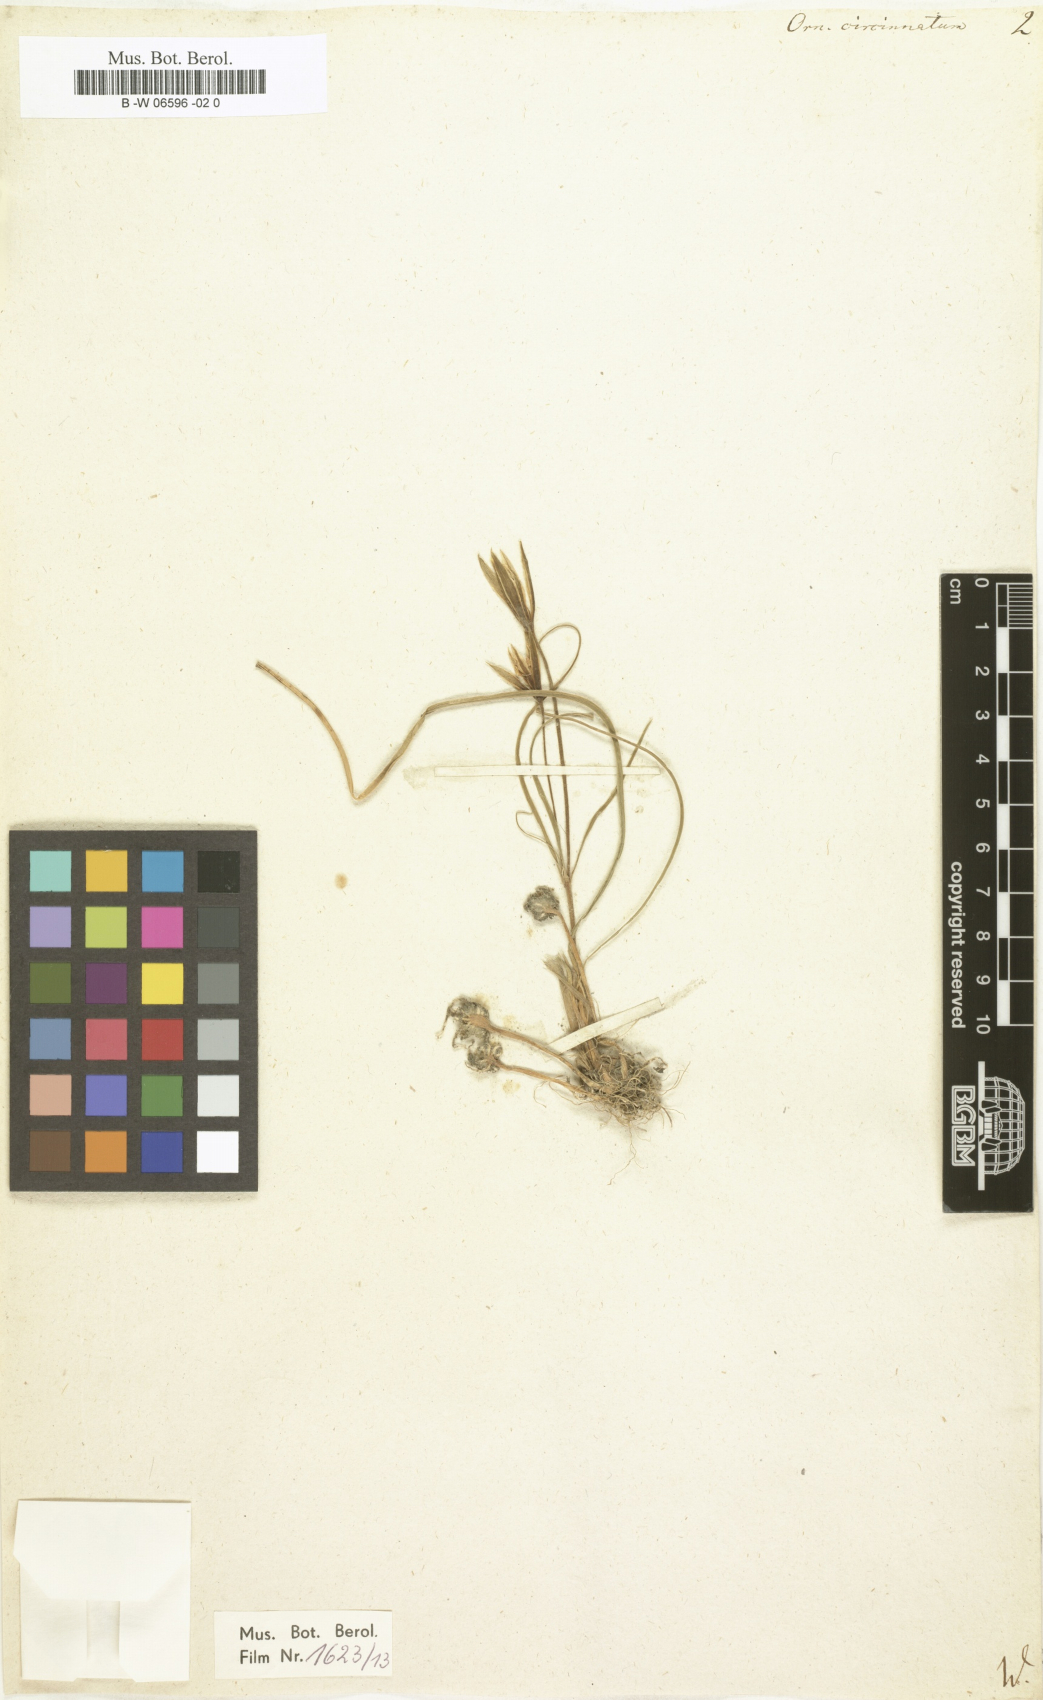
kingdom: Plantae
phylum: Tracheophyta
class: Liliopsida
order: Liliales
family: Liliaceae
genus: Gagea
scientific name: Gagea reticulata
